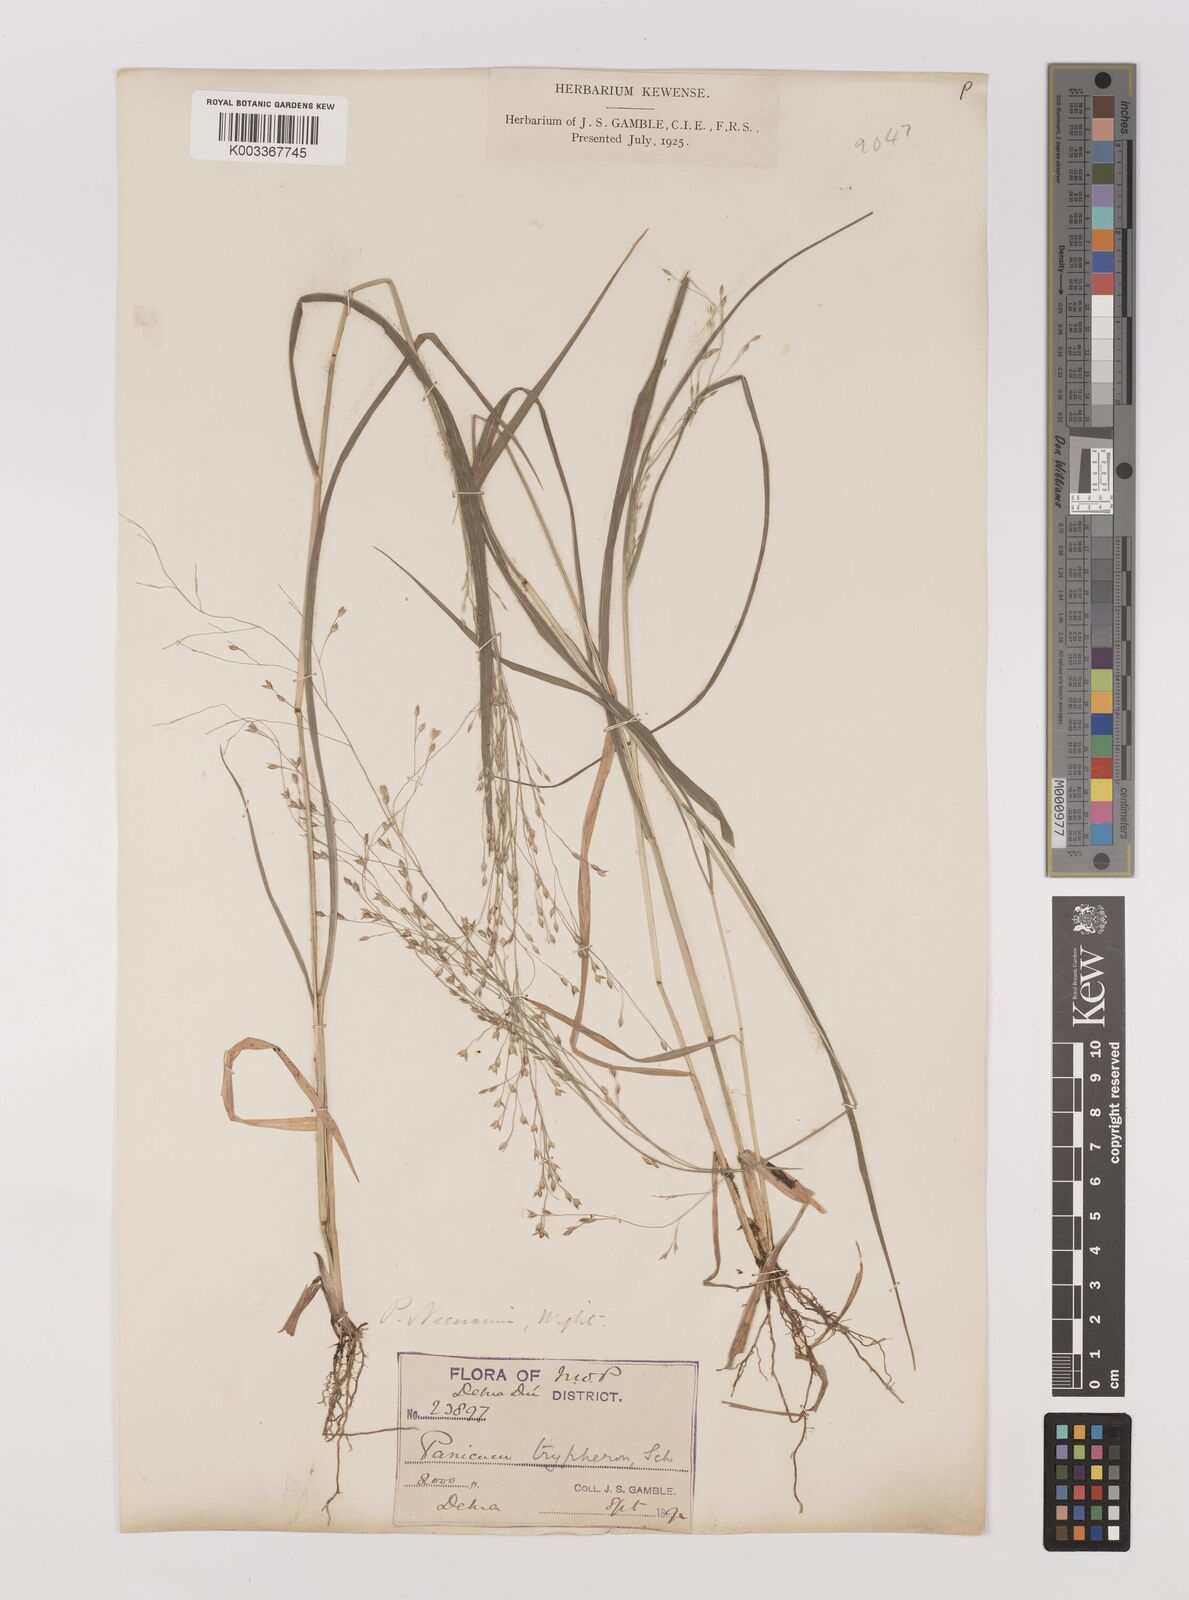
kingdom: Plantae
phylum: Tracheophyta
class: Liliopsida
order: Poales
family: Poaceae
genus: Panicum
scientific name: Panicum curviflorum
